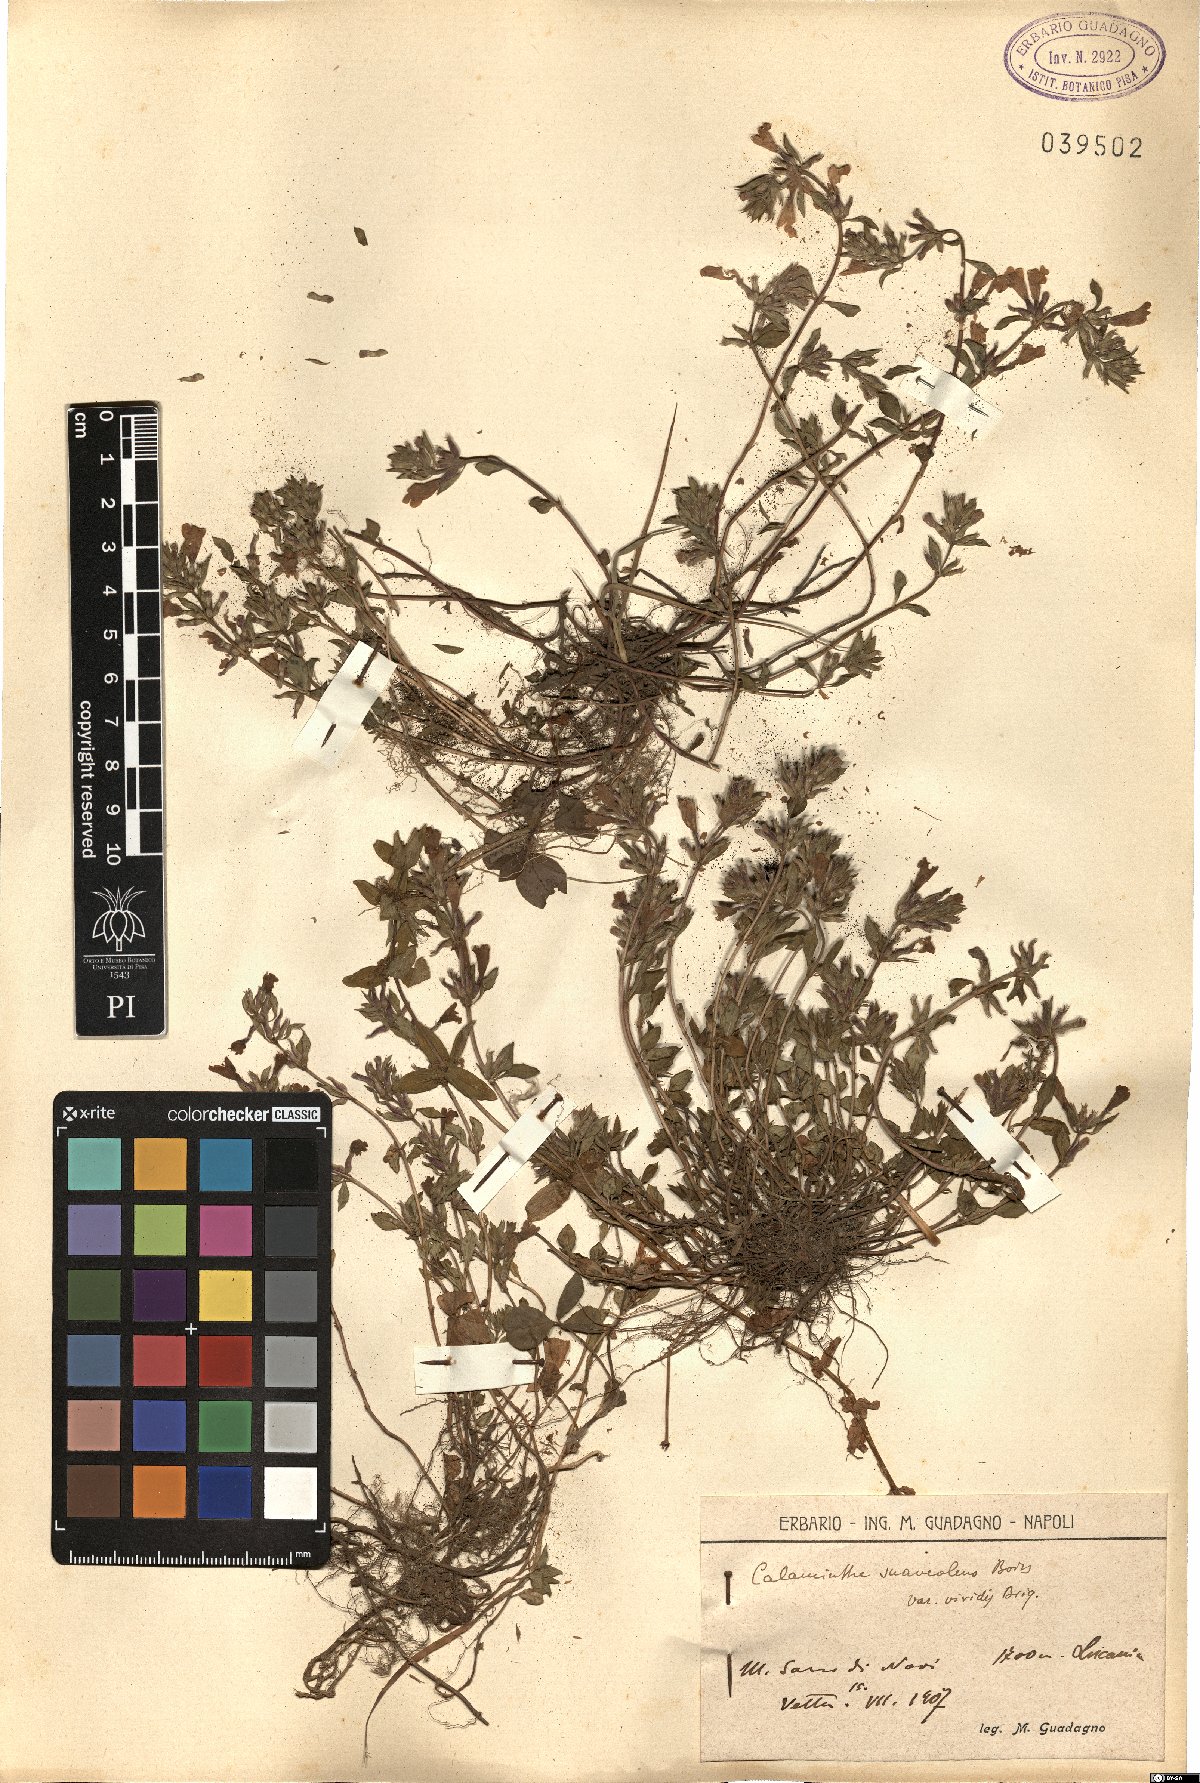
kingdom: Plantae
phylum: Tracheophyta
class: Magnoliopsida
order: Lamiales
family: Lamiaceae
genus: Clinopodium
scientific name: Clinopodium suaveolens
